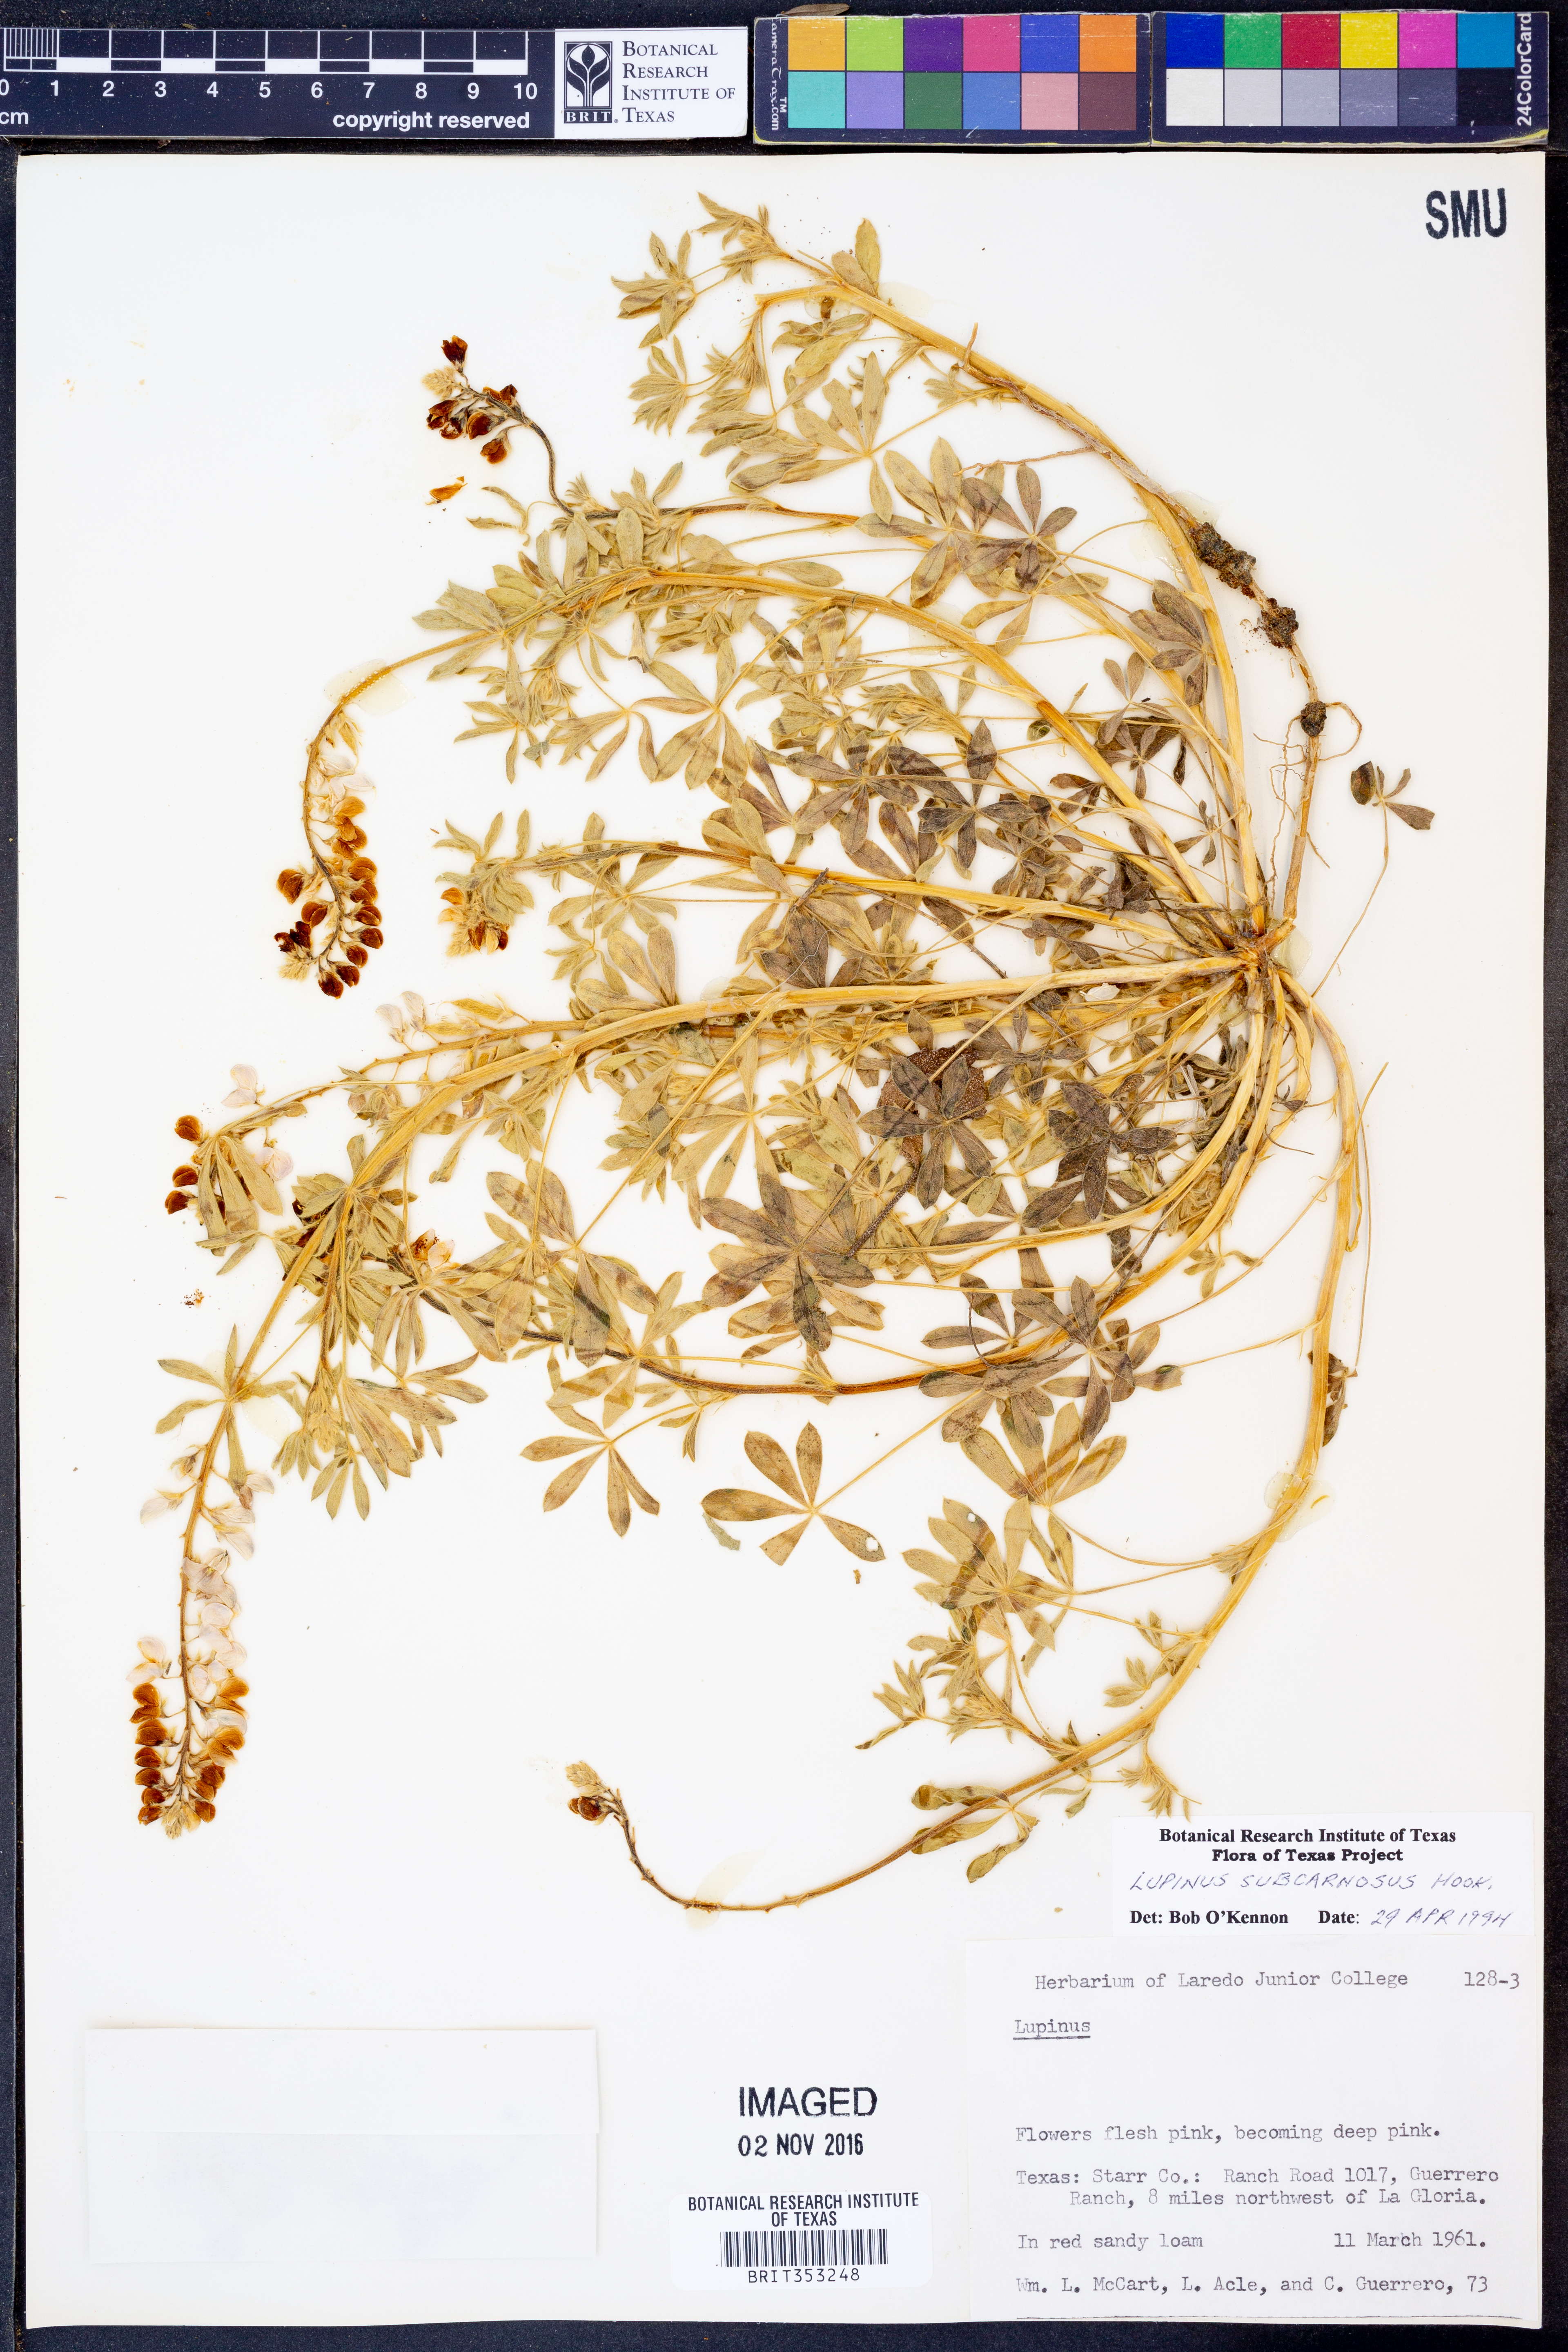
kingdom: Plantae
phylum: Tracheophyta
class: Magnoliopsida
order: Fabales
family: Fabaceae
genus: Lupinus
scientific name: Lupinus subcarnosus
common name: Texas bluebonnet
